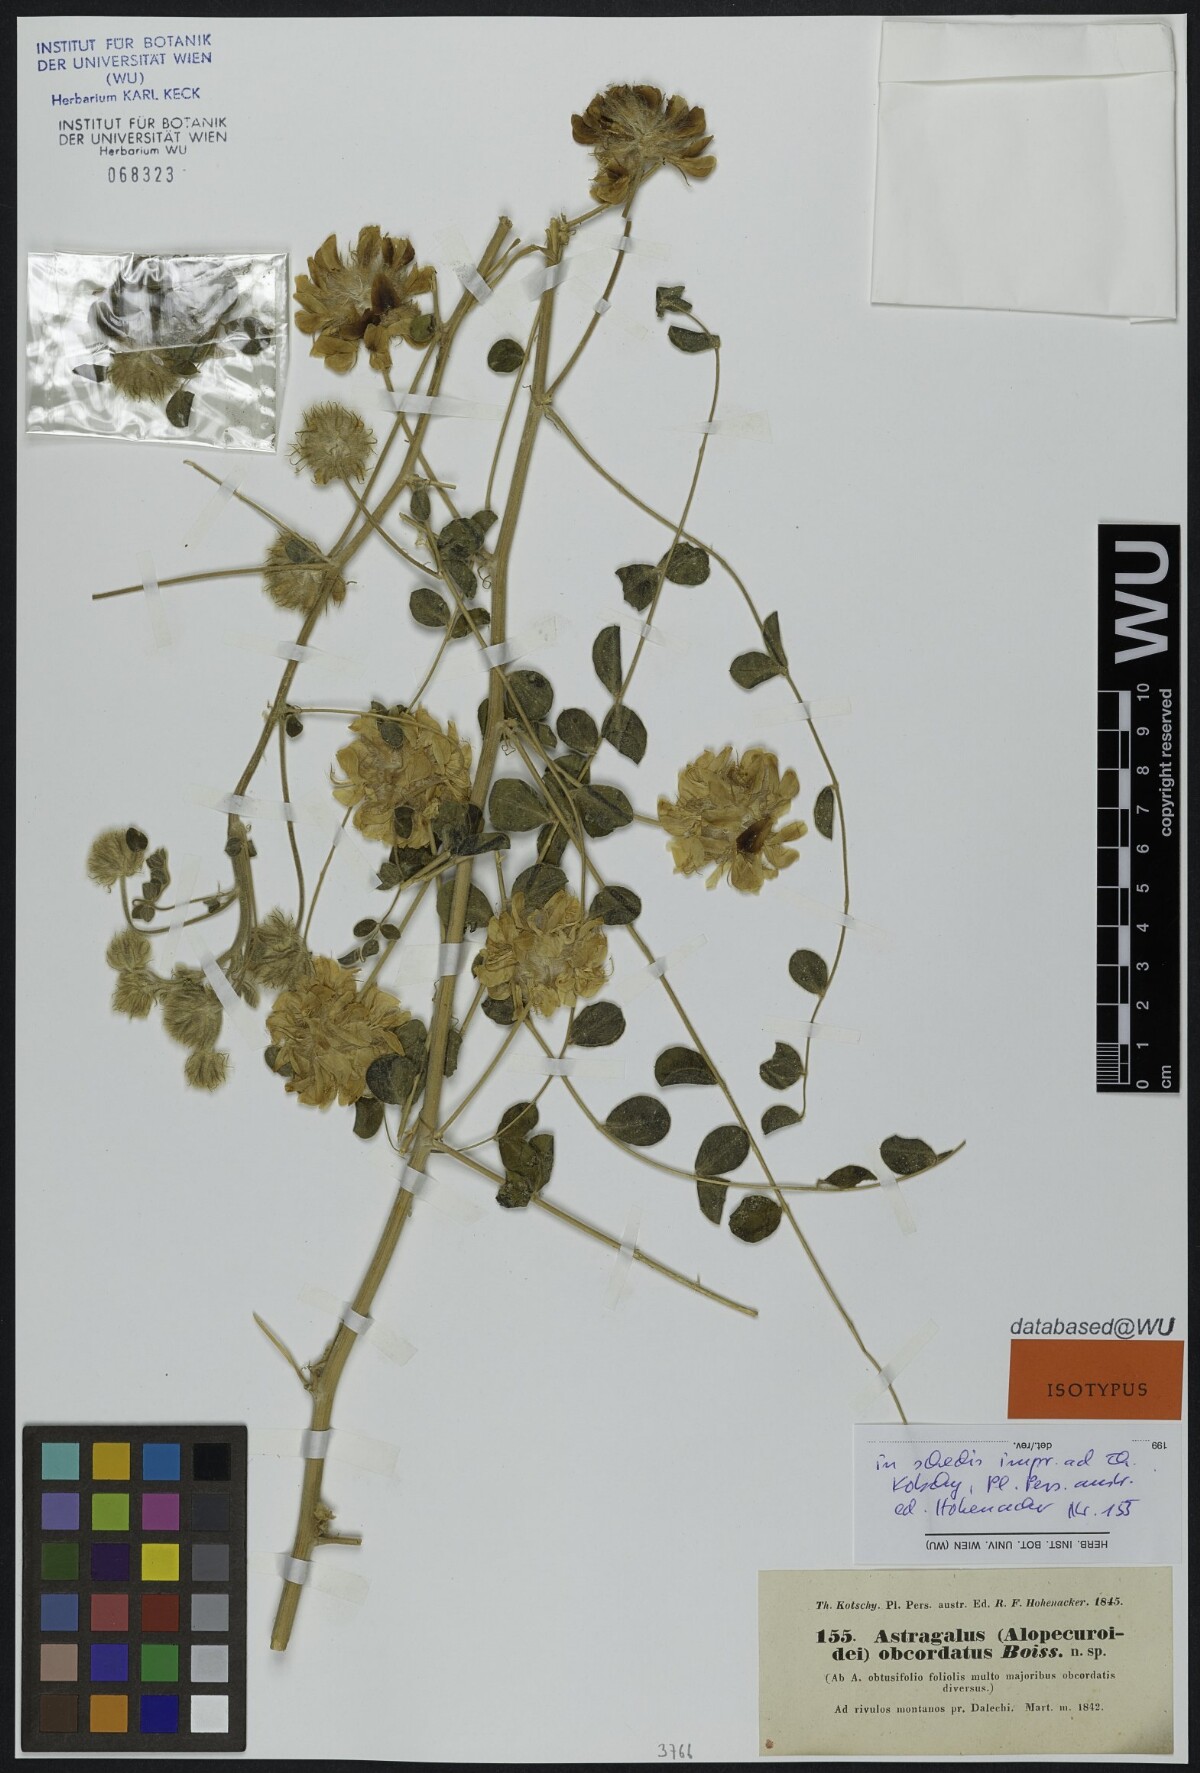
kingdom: Plantae
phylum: Tracheophyta
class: Magnoliopsida
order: Fabales
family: Fabaceae
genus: Astragalus
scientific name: Astragalus obtusifolius
